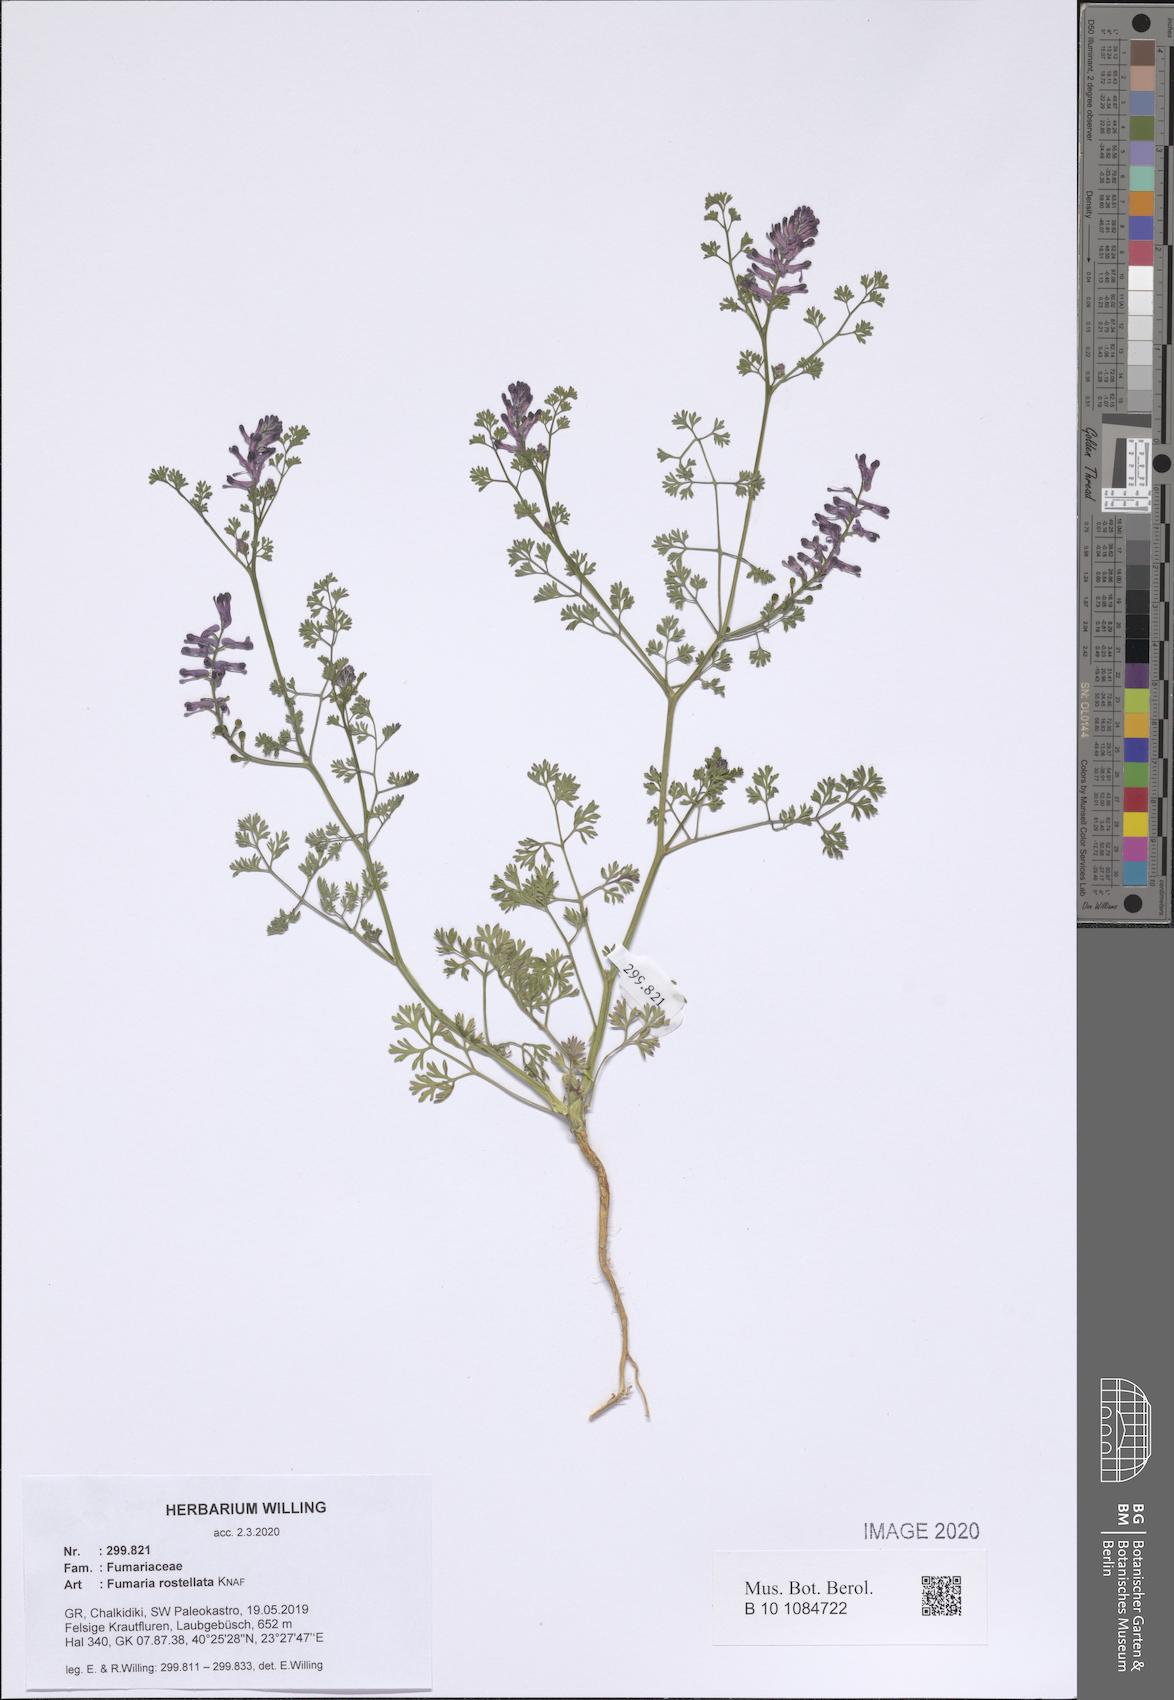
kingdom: Plantae
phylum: Tracheophyta
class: Magnoliopsida
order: Ranunculales
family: Papaveraceae
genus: Fumaria
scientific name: Fumaria rostellata
